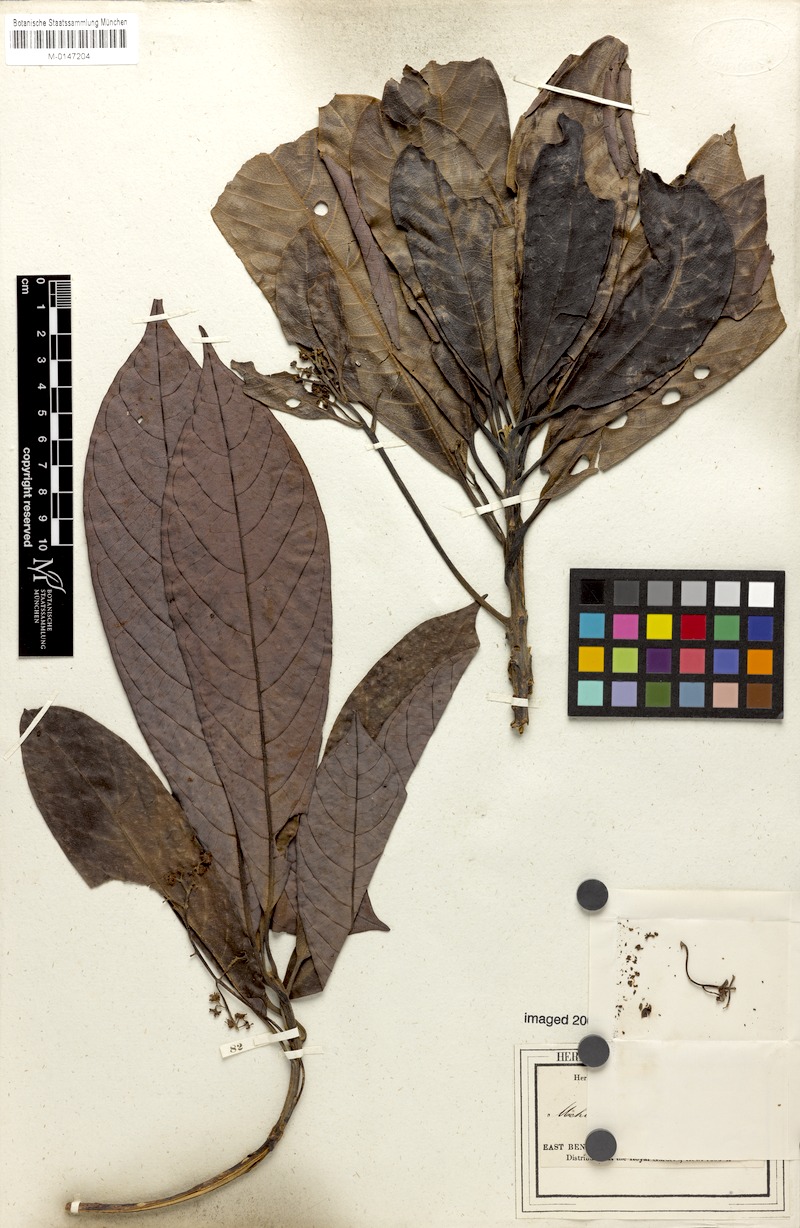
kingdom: Plantae
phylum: Tracheophyta
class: Magnoliopsida
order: Laurales
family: Lauraceae
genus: Alseodaphne
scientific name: Alseodaphne khasyana
